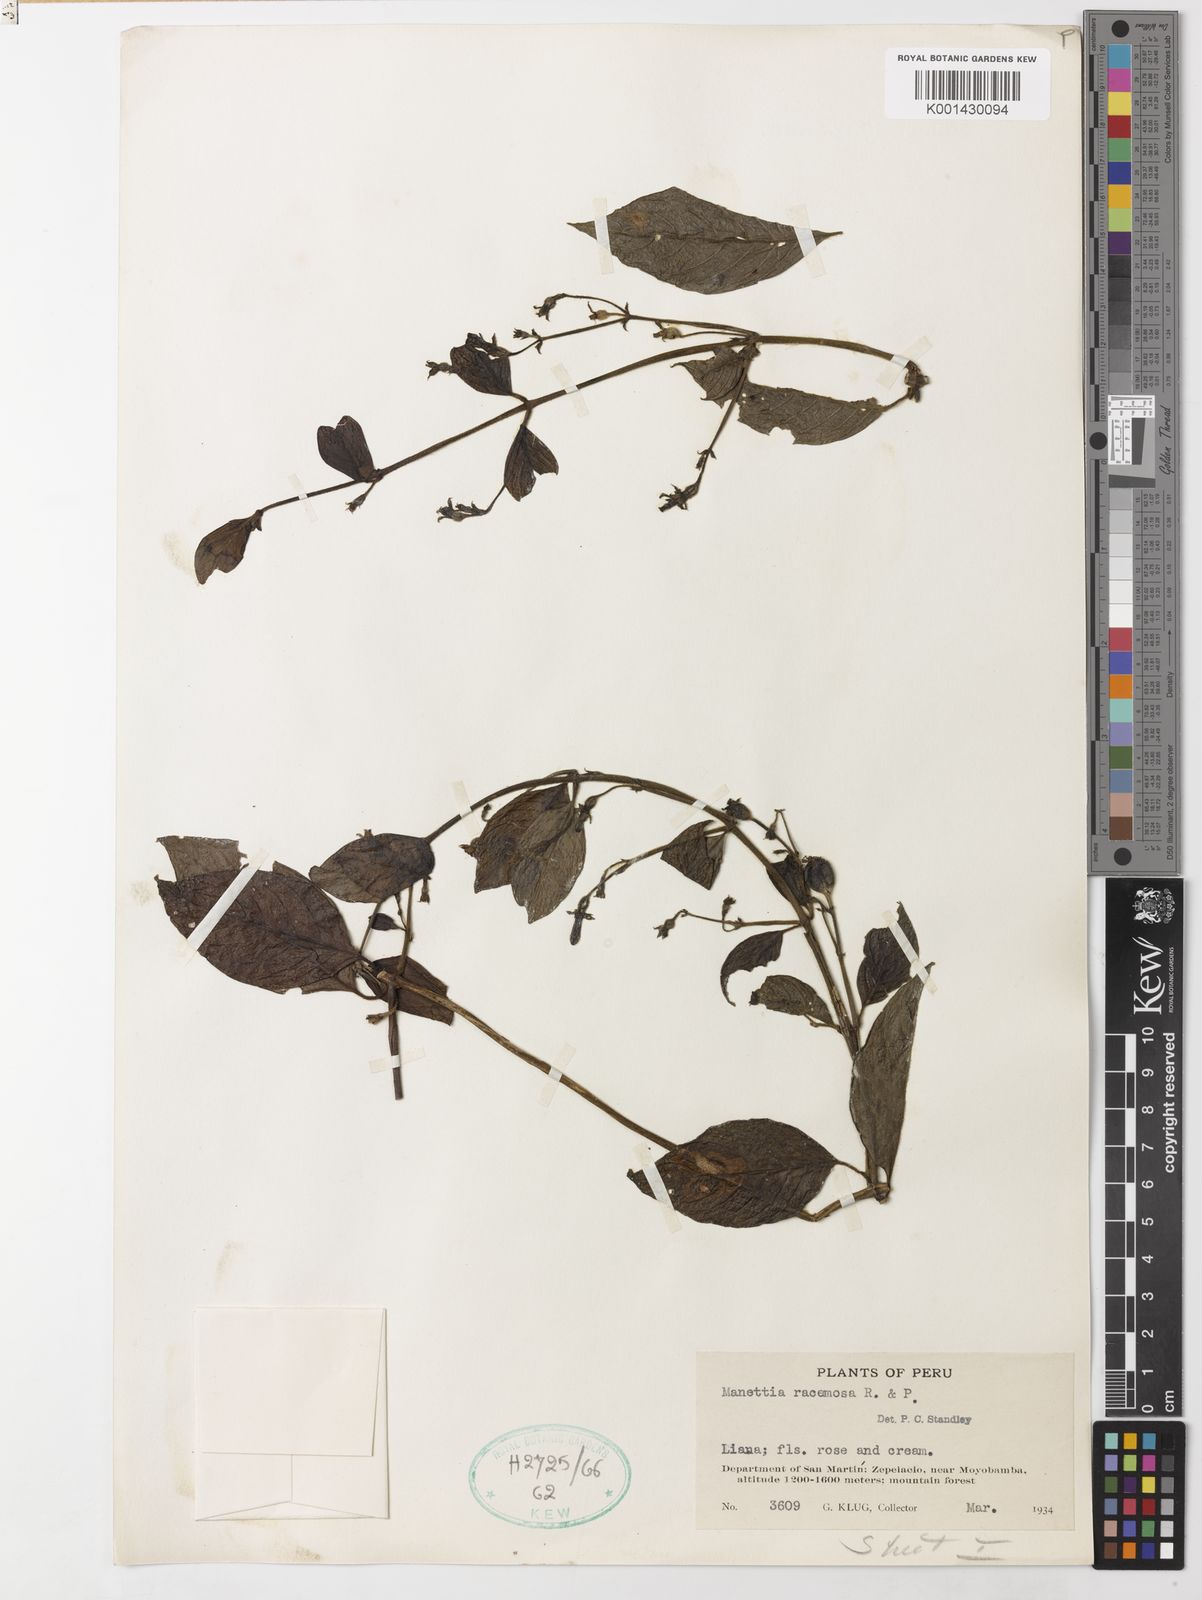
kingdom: Plantae
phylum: Tracheophyta
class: Magnoliopsida
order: Gentianales
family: Rubiaceae
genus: Manettia
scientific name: Manettia racemosa
